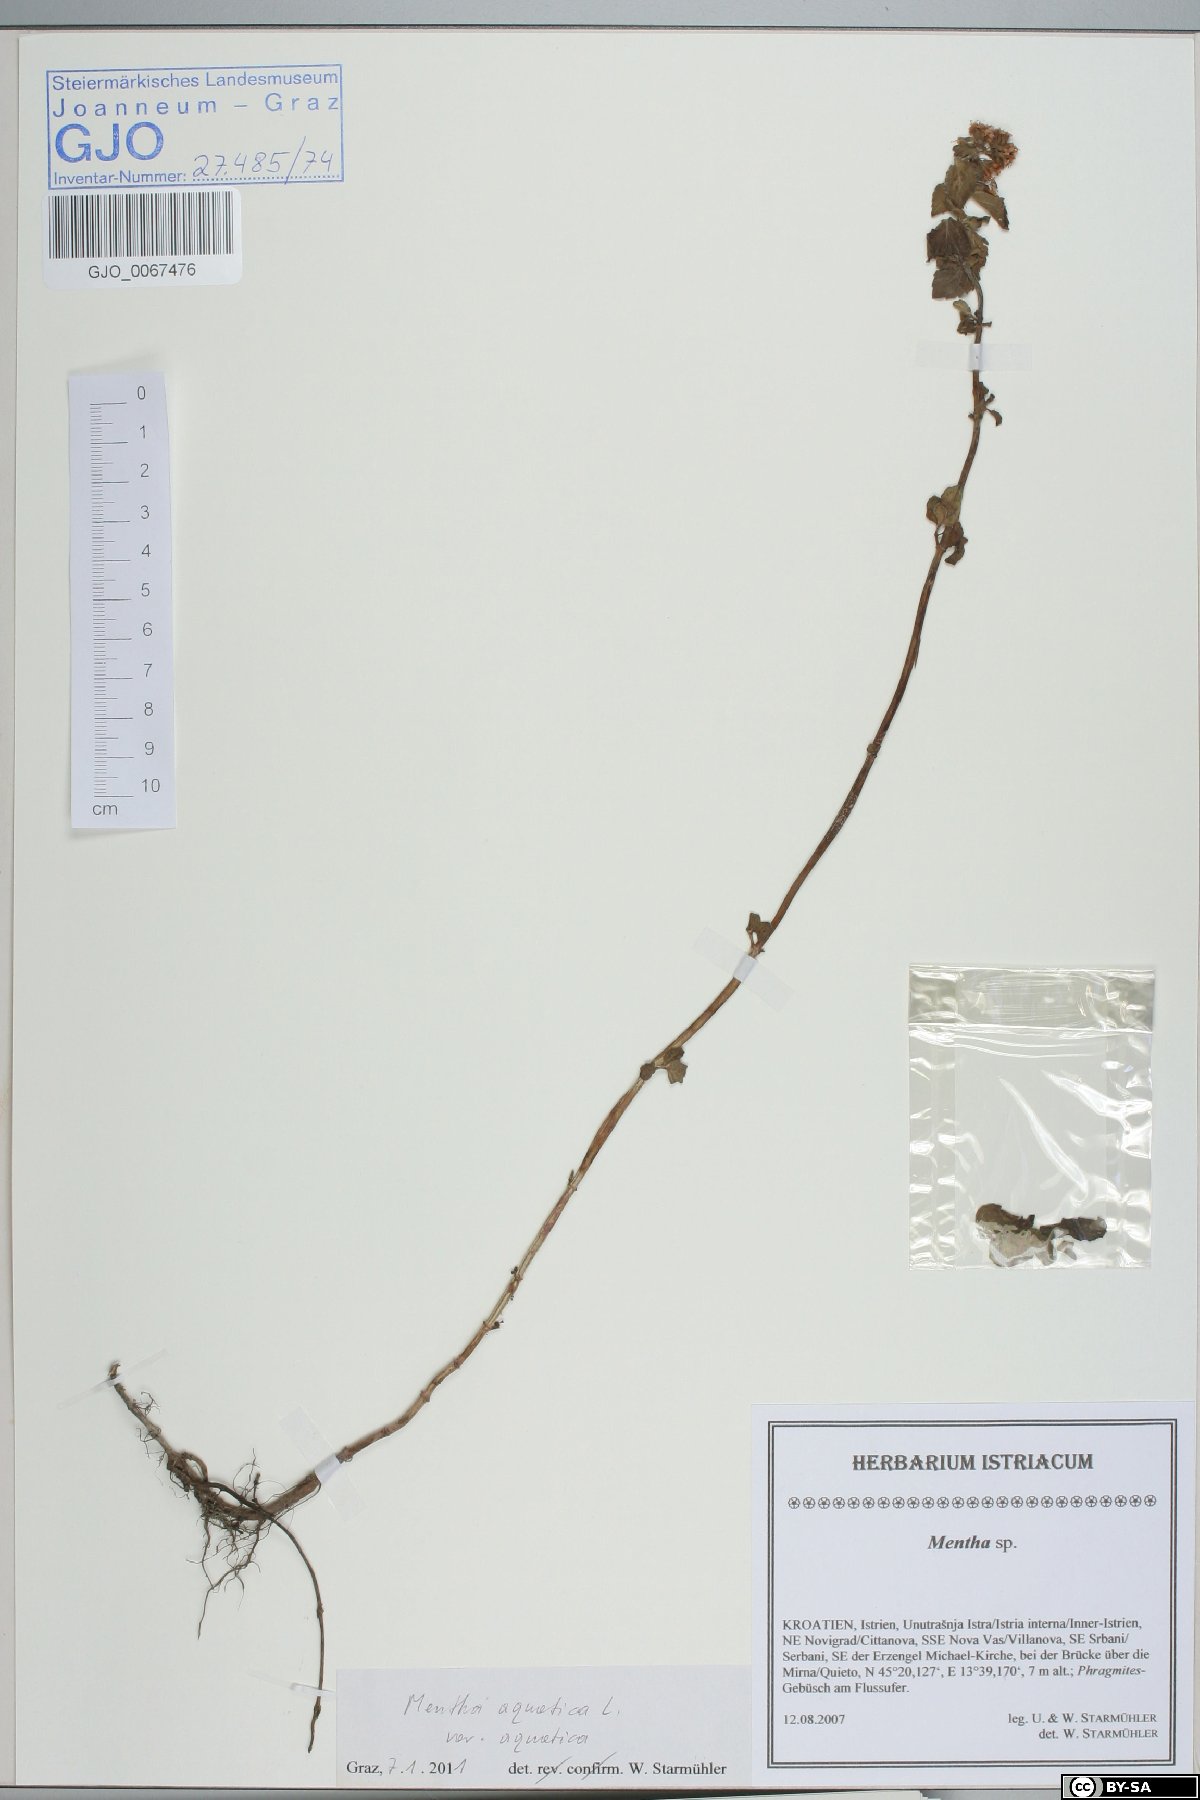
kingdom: Plantae
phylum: Tracheophyta
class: Magnoliopsida
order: Lamiales
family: Lamiaceae
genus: Mentha
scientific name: Mentha aquatica
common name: Water mint
